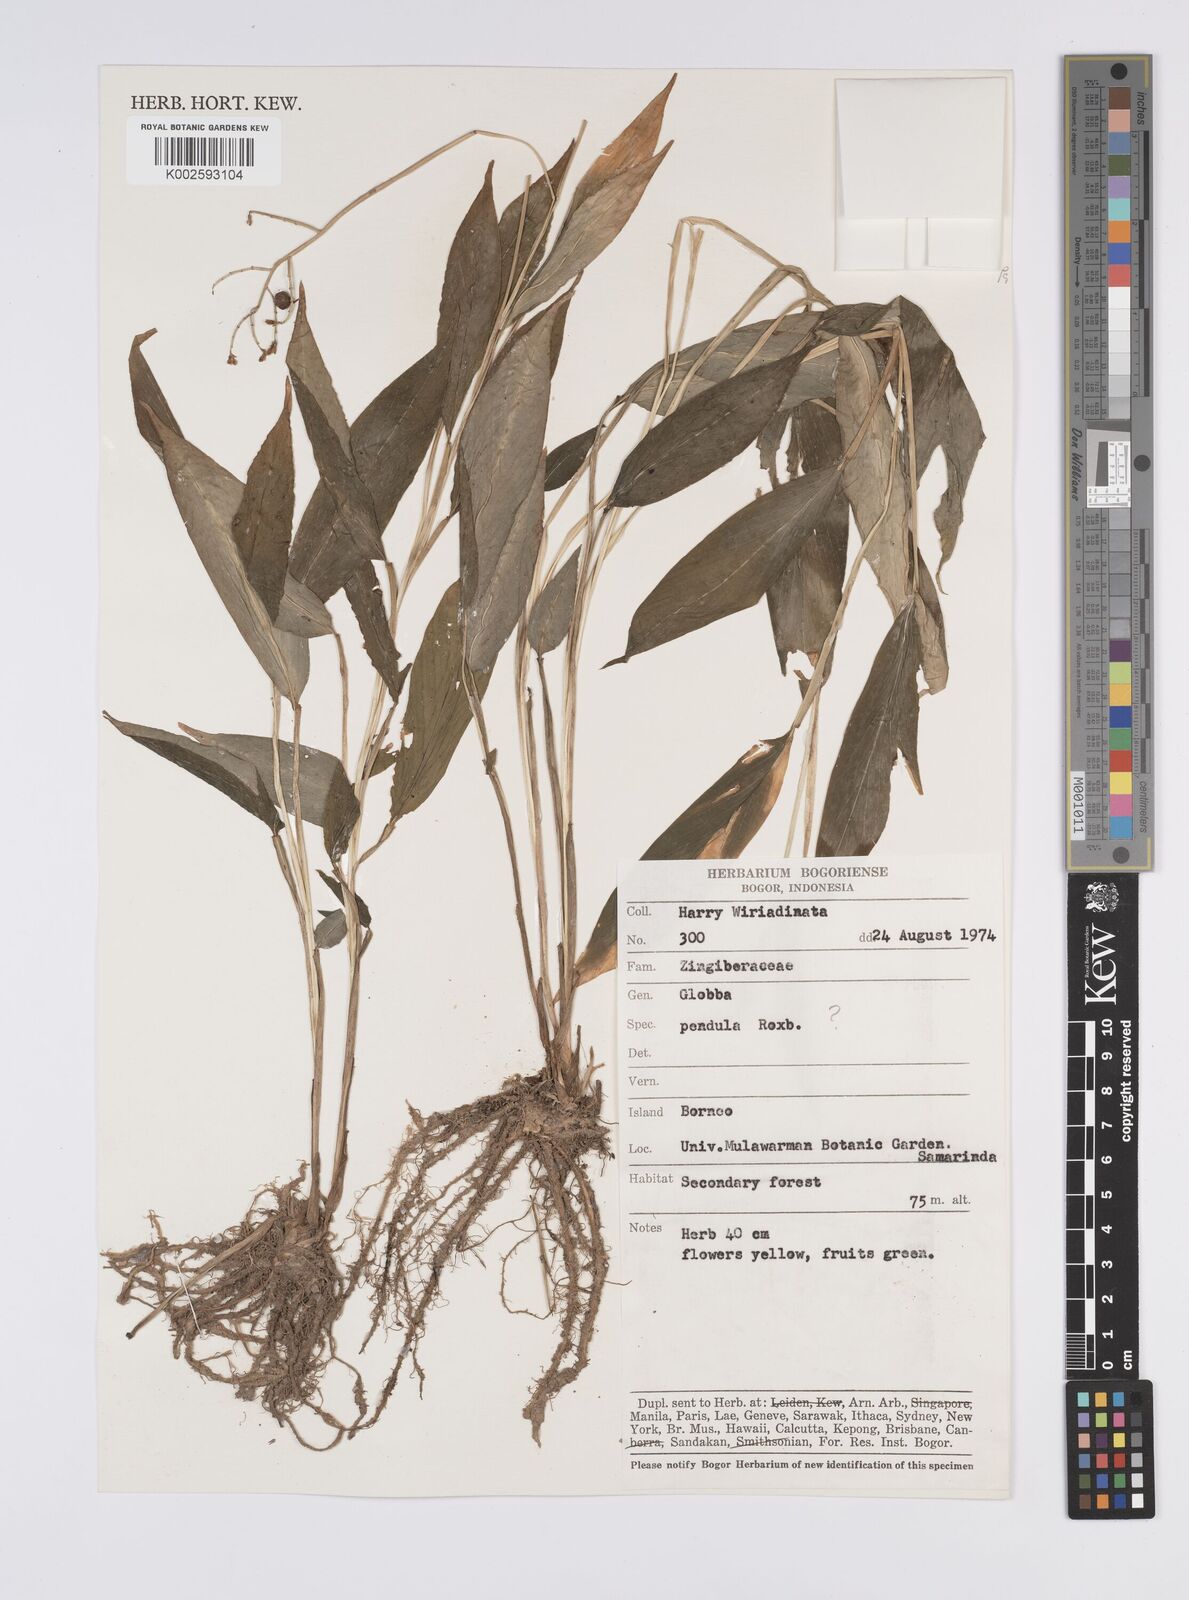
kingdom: Plantae
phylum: Tracheophyta
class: Liliopsida
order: Zingiberales
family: Zingiberaceae
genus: Globba
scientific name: Globba pendula
